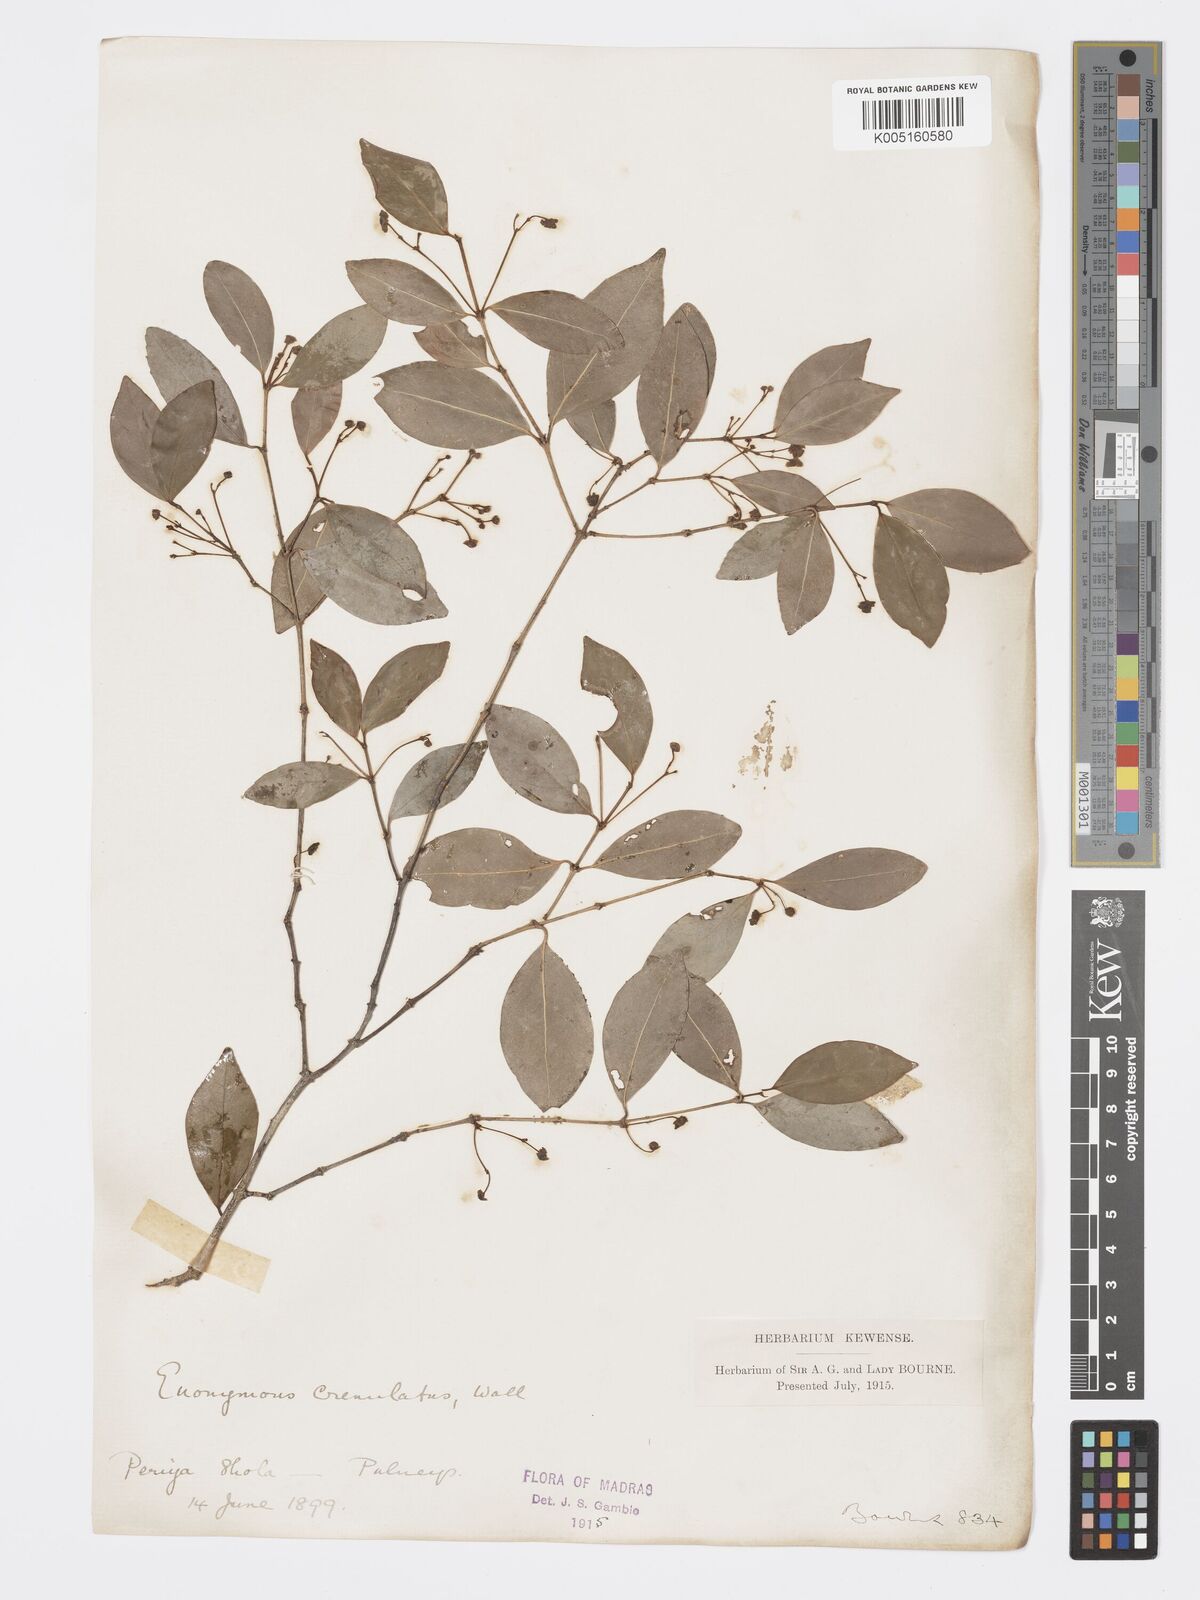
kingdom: Plantae
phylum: Tracheophyta
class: Magnoliopsida
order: Celastrales
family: Celastraceae
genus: Euonymus
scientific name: Euonymus crenulatus
